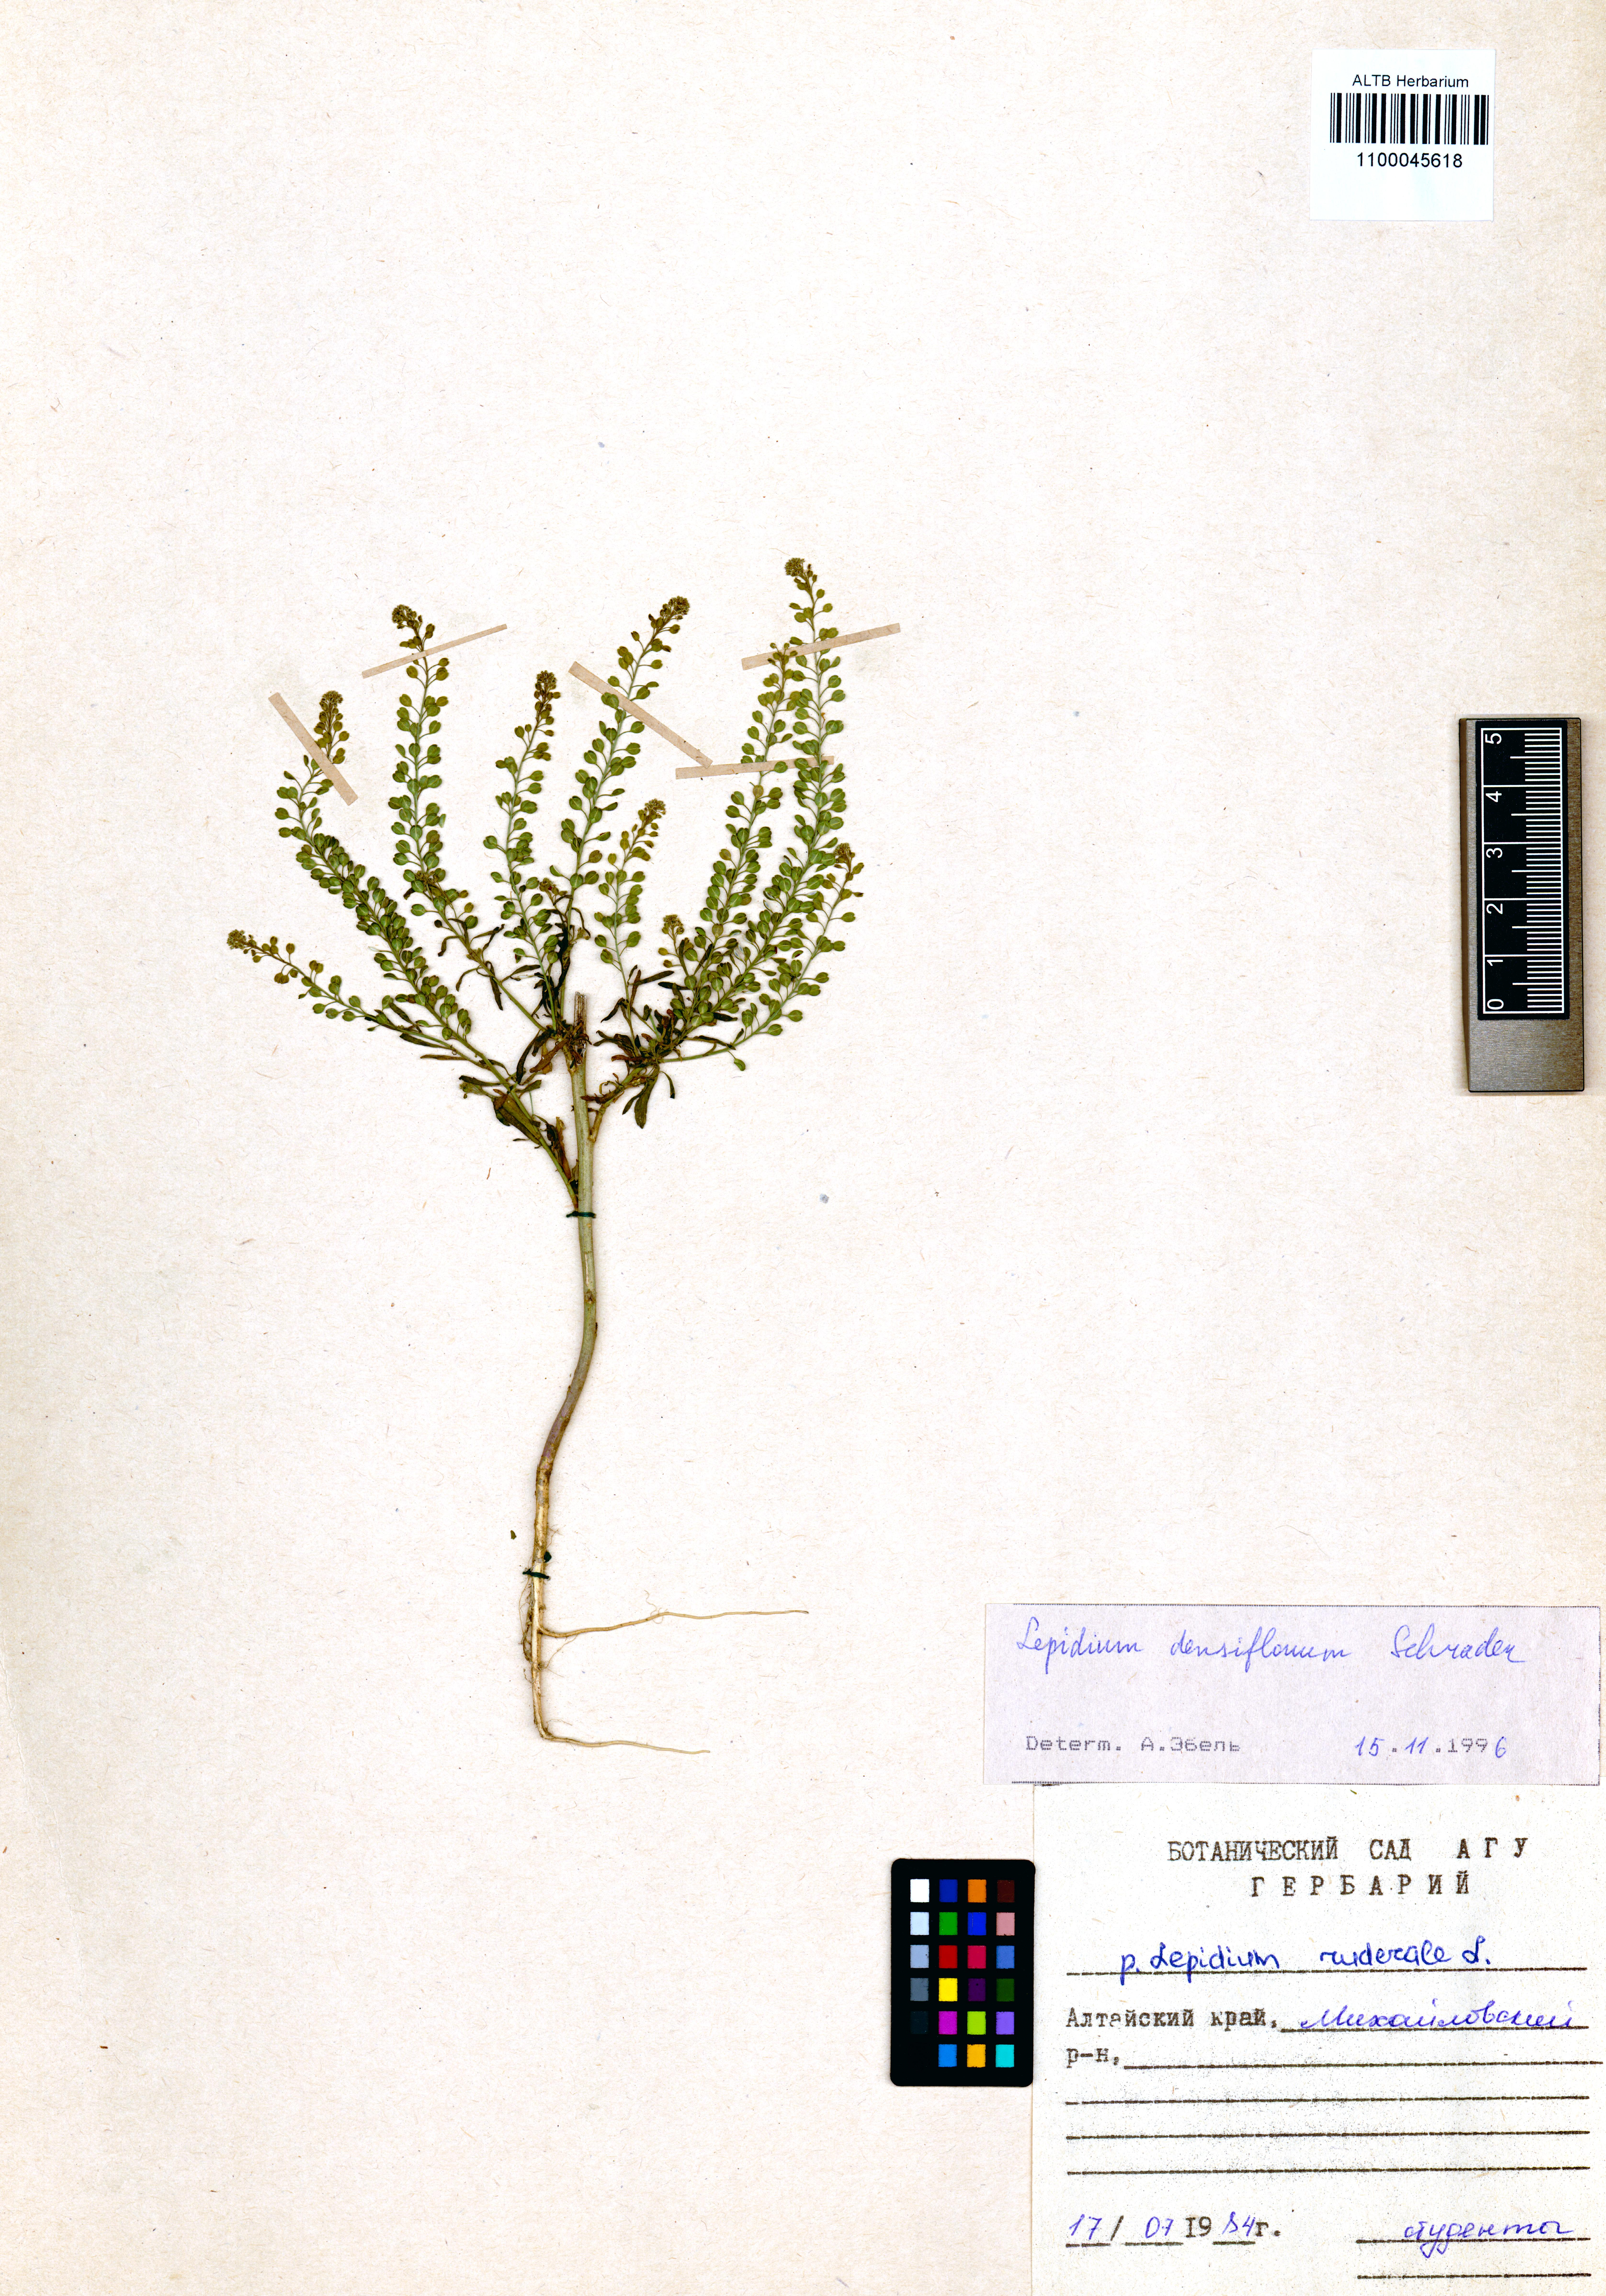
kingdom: Plantae
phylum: Tracheophyta
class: Magnoliopsida
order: Brassicales
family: Brassicaceae
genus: Lepidium
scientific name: Lepidium densiflorum
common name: Miner's pepperwort
